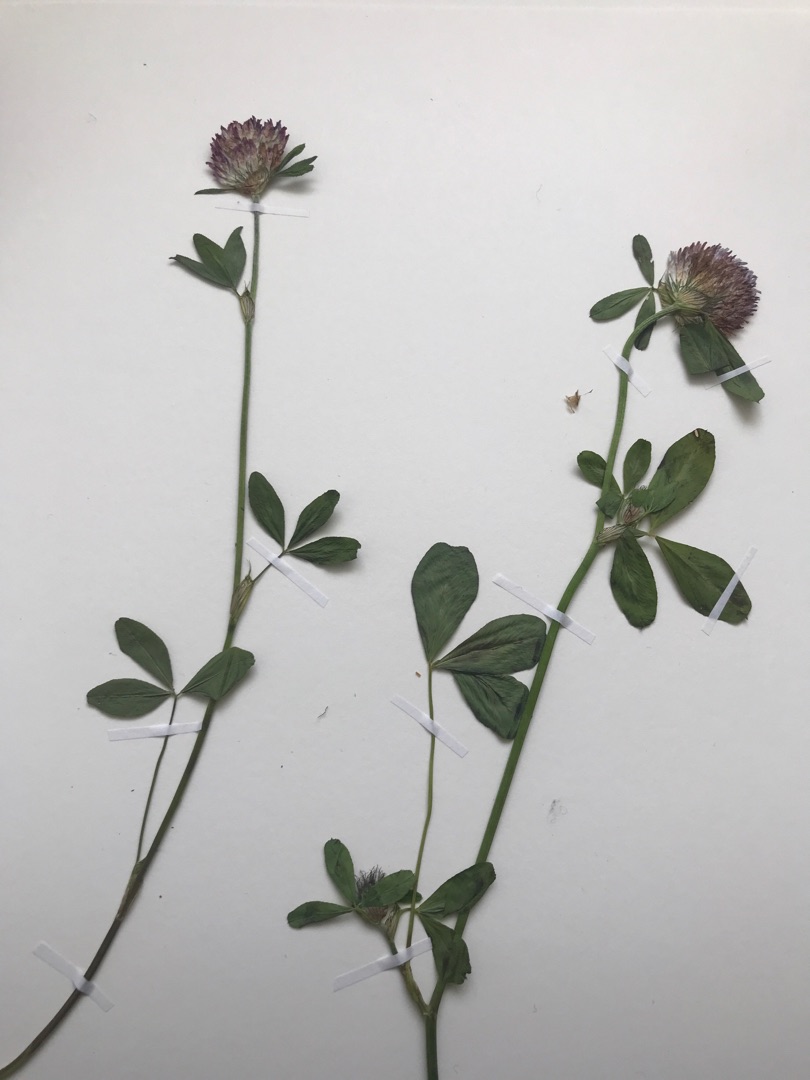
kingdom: Plantae
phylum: Tracheophyta
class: Magnoliopsida
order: Fabales
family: Fabaceae
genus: Trifolium
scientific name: Trifolium pratense
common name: Rød-kløver
